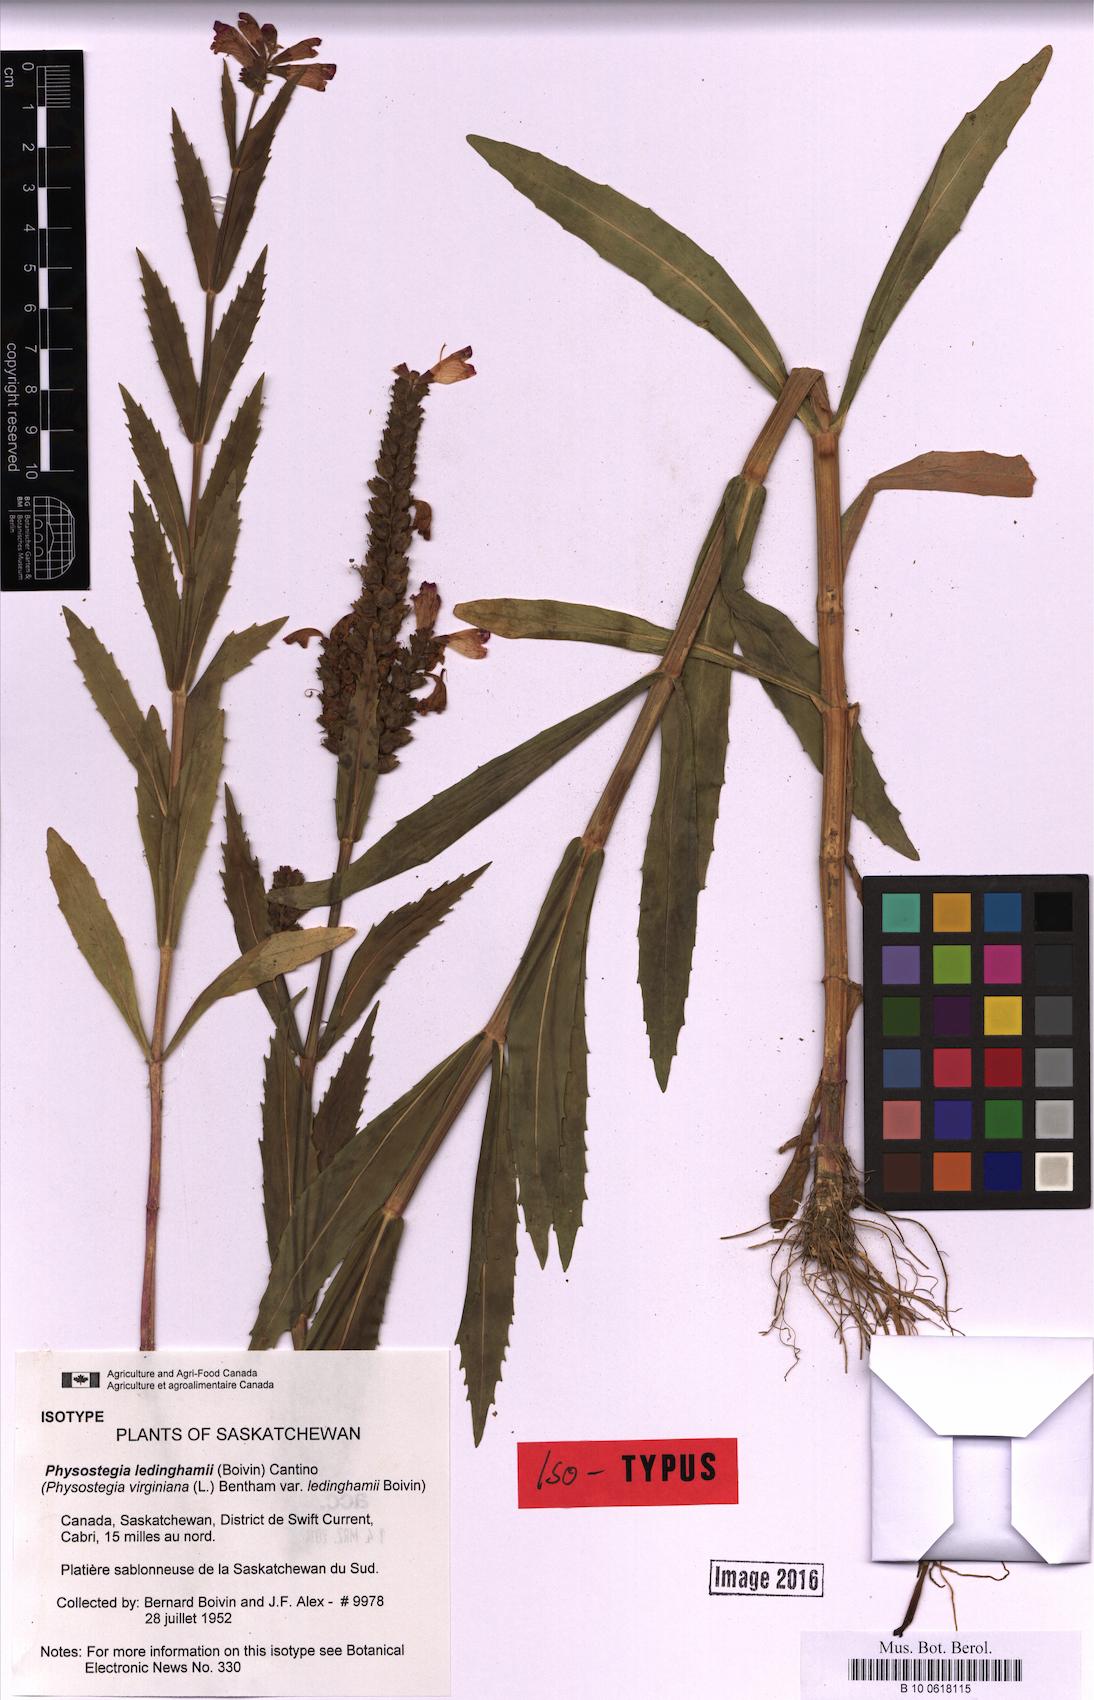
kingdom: Plantae
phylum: Tracheophyta
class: Magnoliopsida
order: Lamiales
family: Lamiaceae
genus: Physostegia
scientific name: Physostegia ledinghamii
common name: Ledingham's false dragonhead
